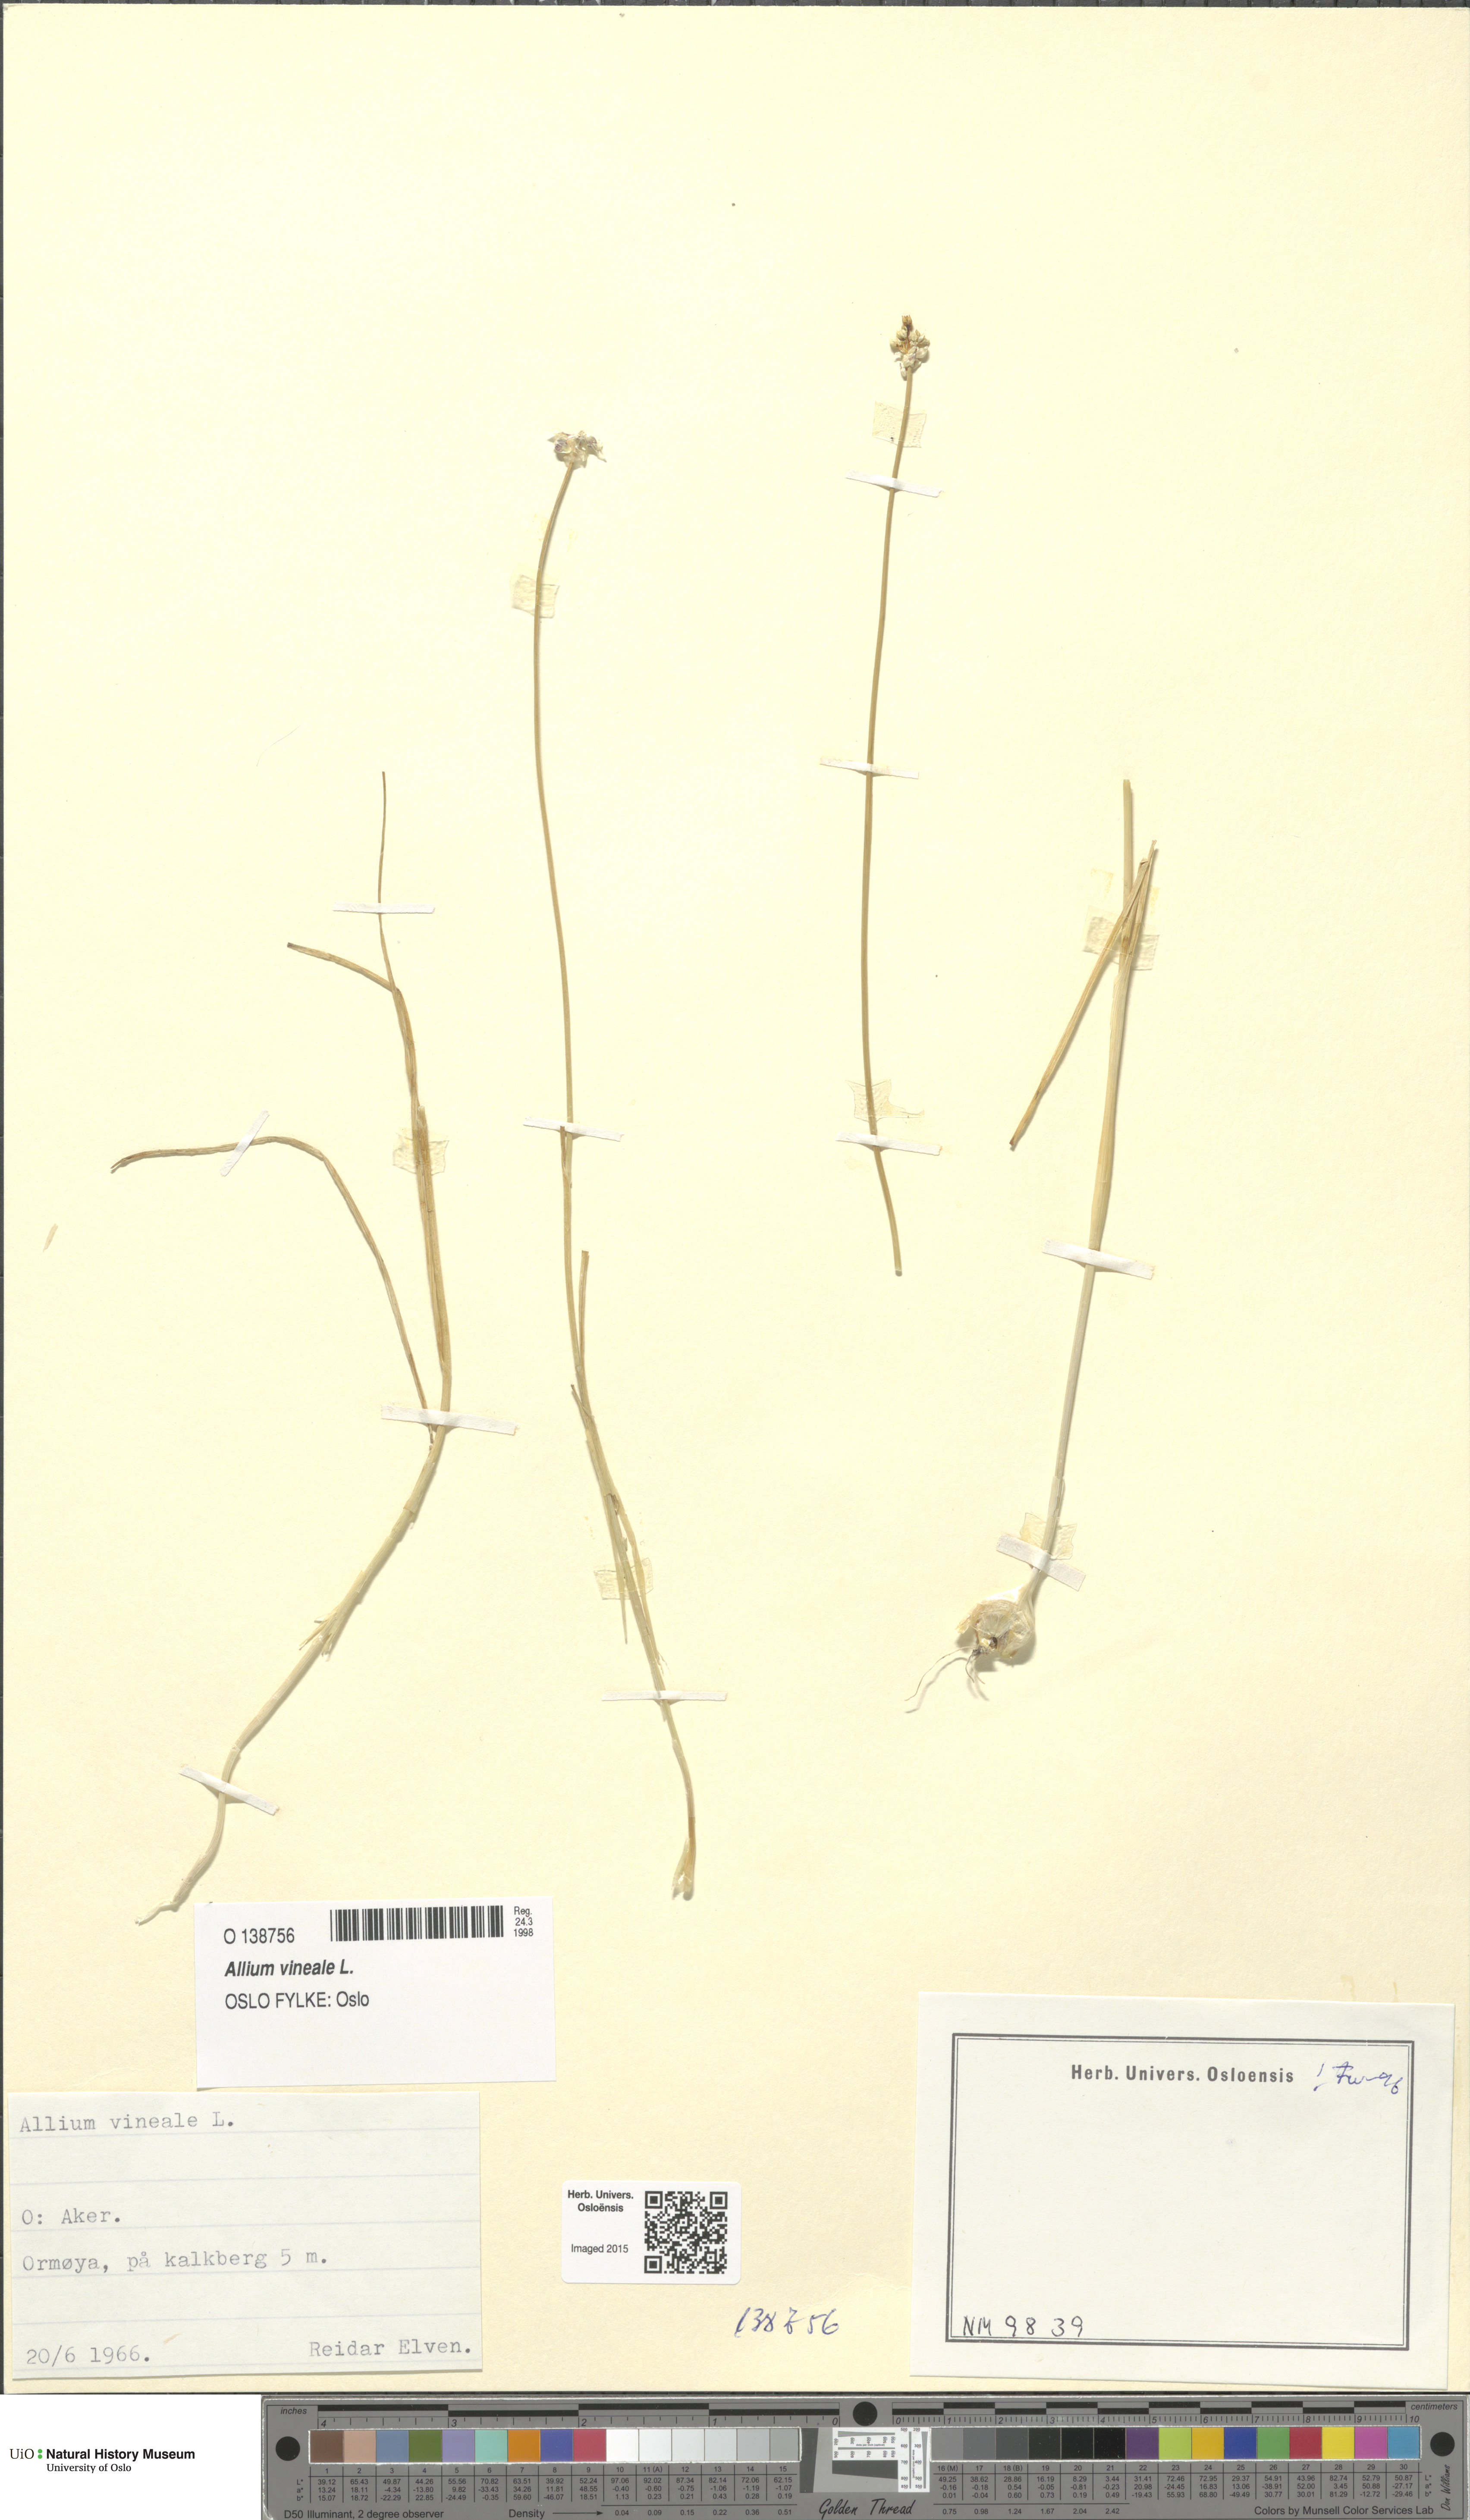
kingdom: Plantae
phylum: Tracheophyta
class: Liliopsida
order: Asparagales
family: Amaryllidaceae
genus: Allium
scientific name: Allium vineale
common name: Crow garlic
